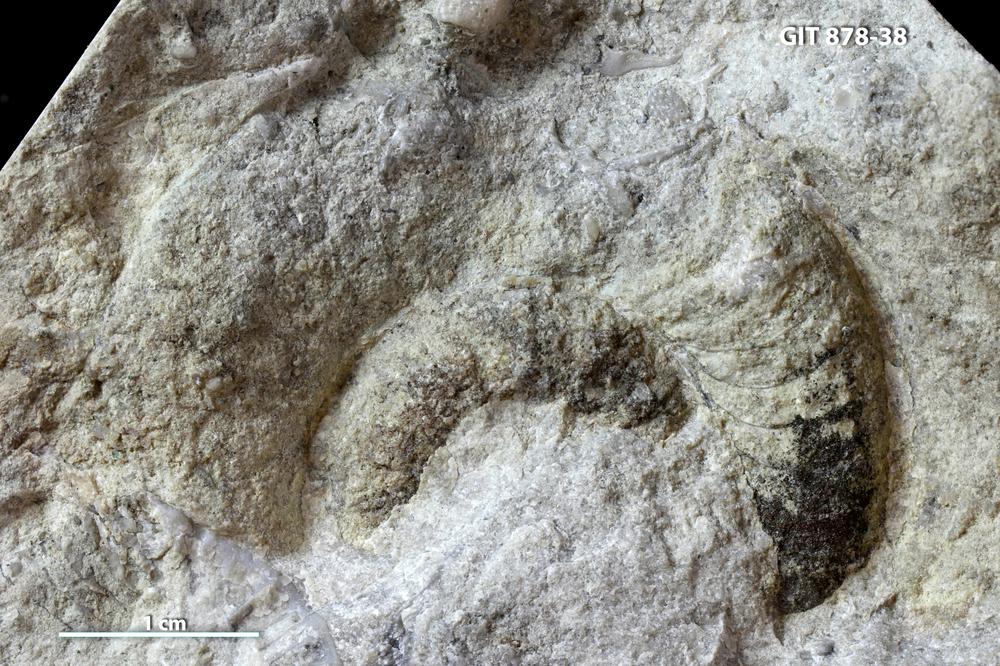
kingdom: Animalia
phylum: Mollusca
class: Cephalopoda
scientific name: Cephalopoda
